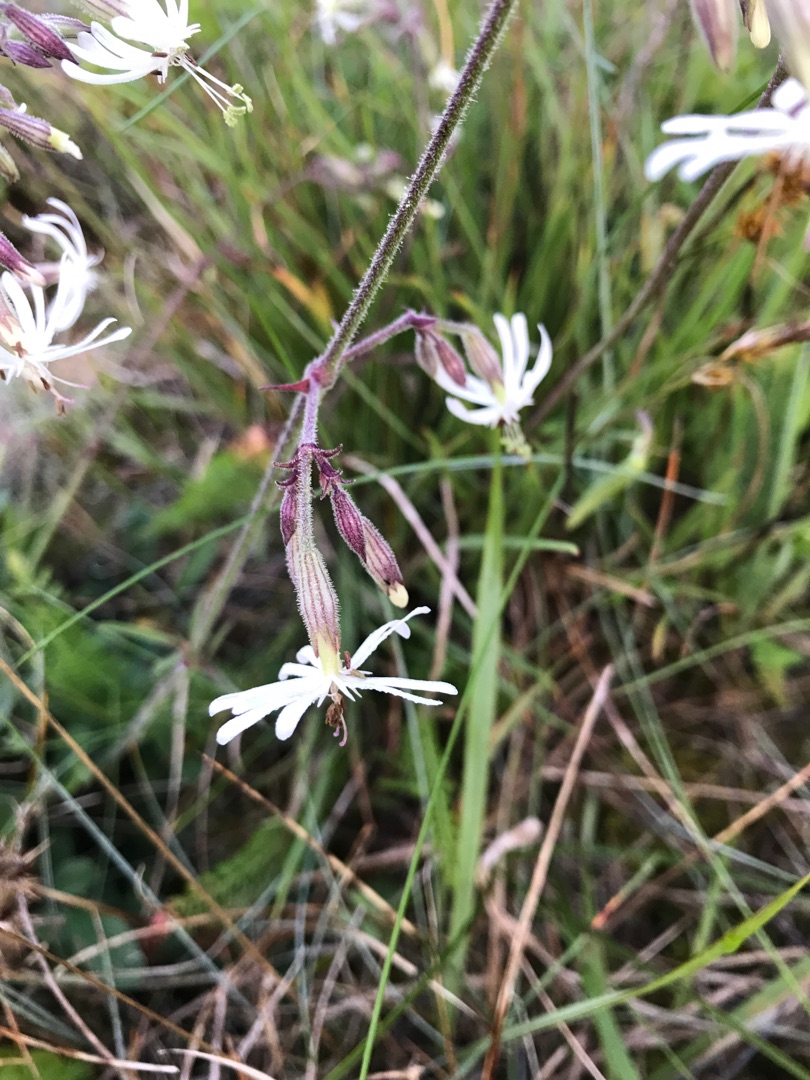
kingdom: Plantae
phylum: Tracheophyta
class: Magnoliopsida
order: Caryophyllales
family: Caryophyllaceae
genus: Silene
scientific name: Silene nutans
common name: Nikkende limurt
